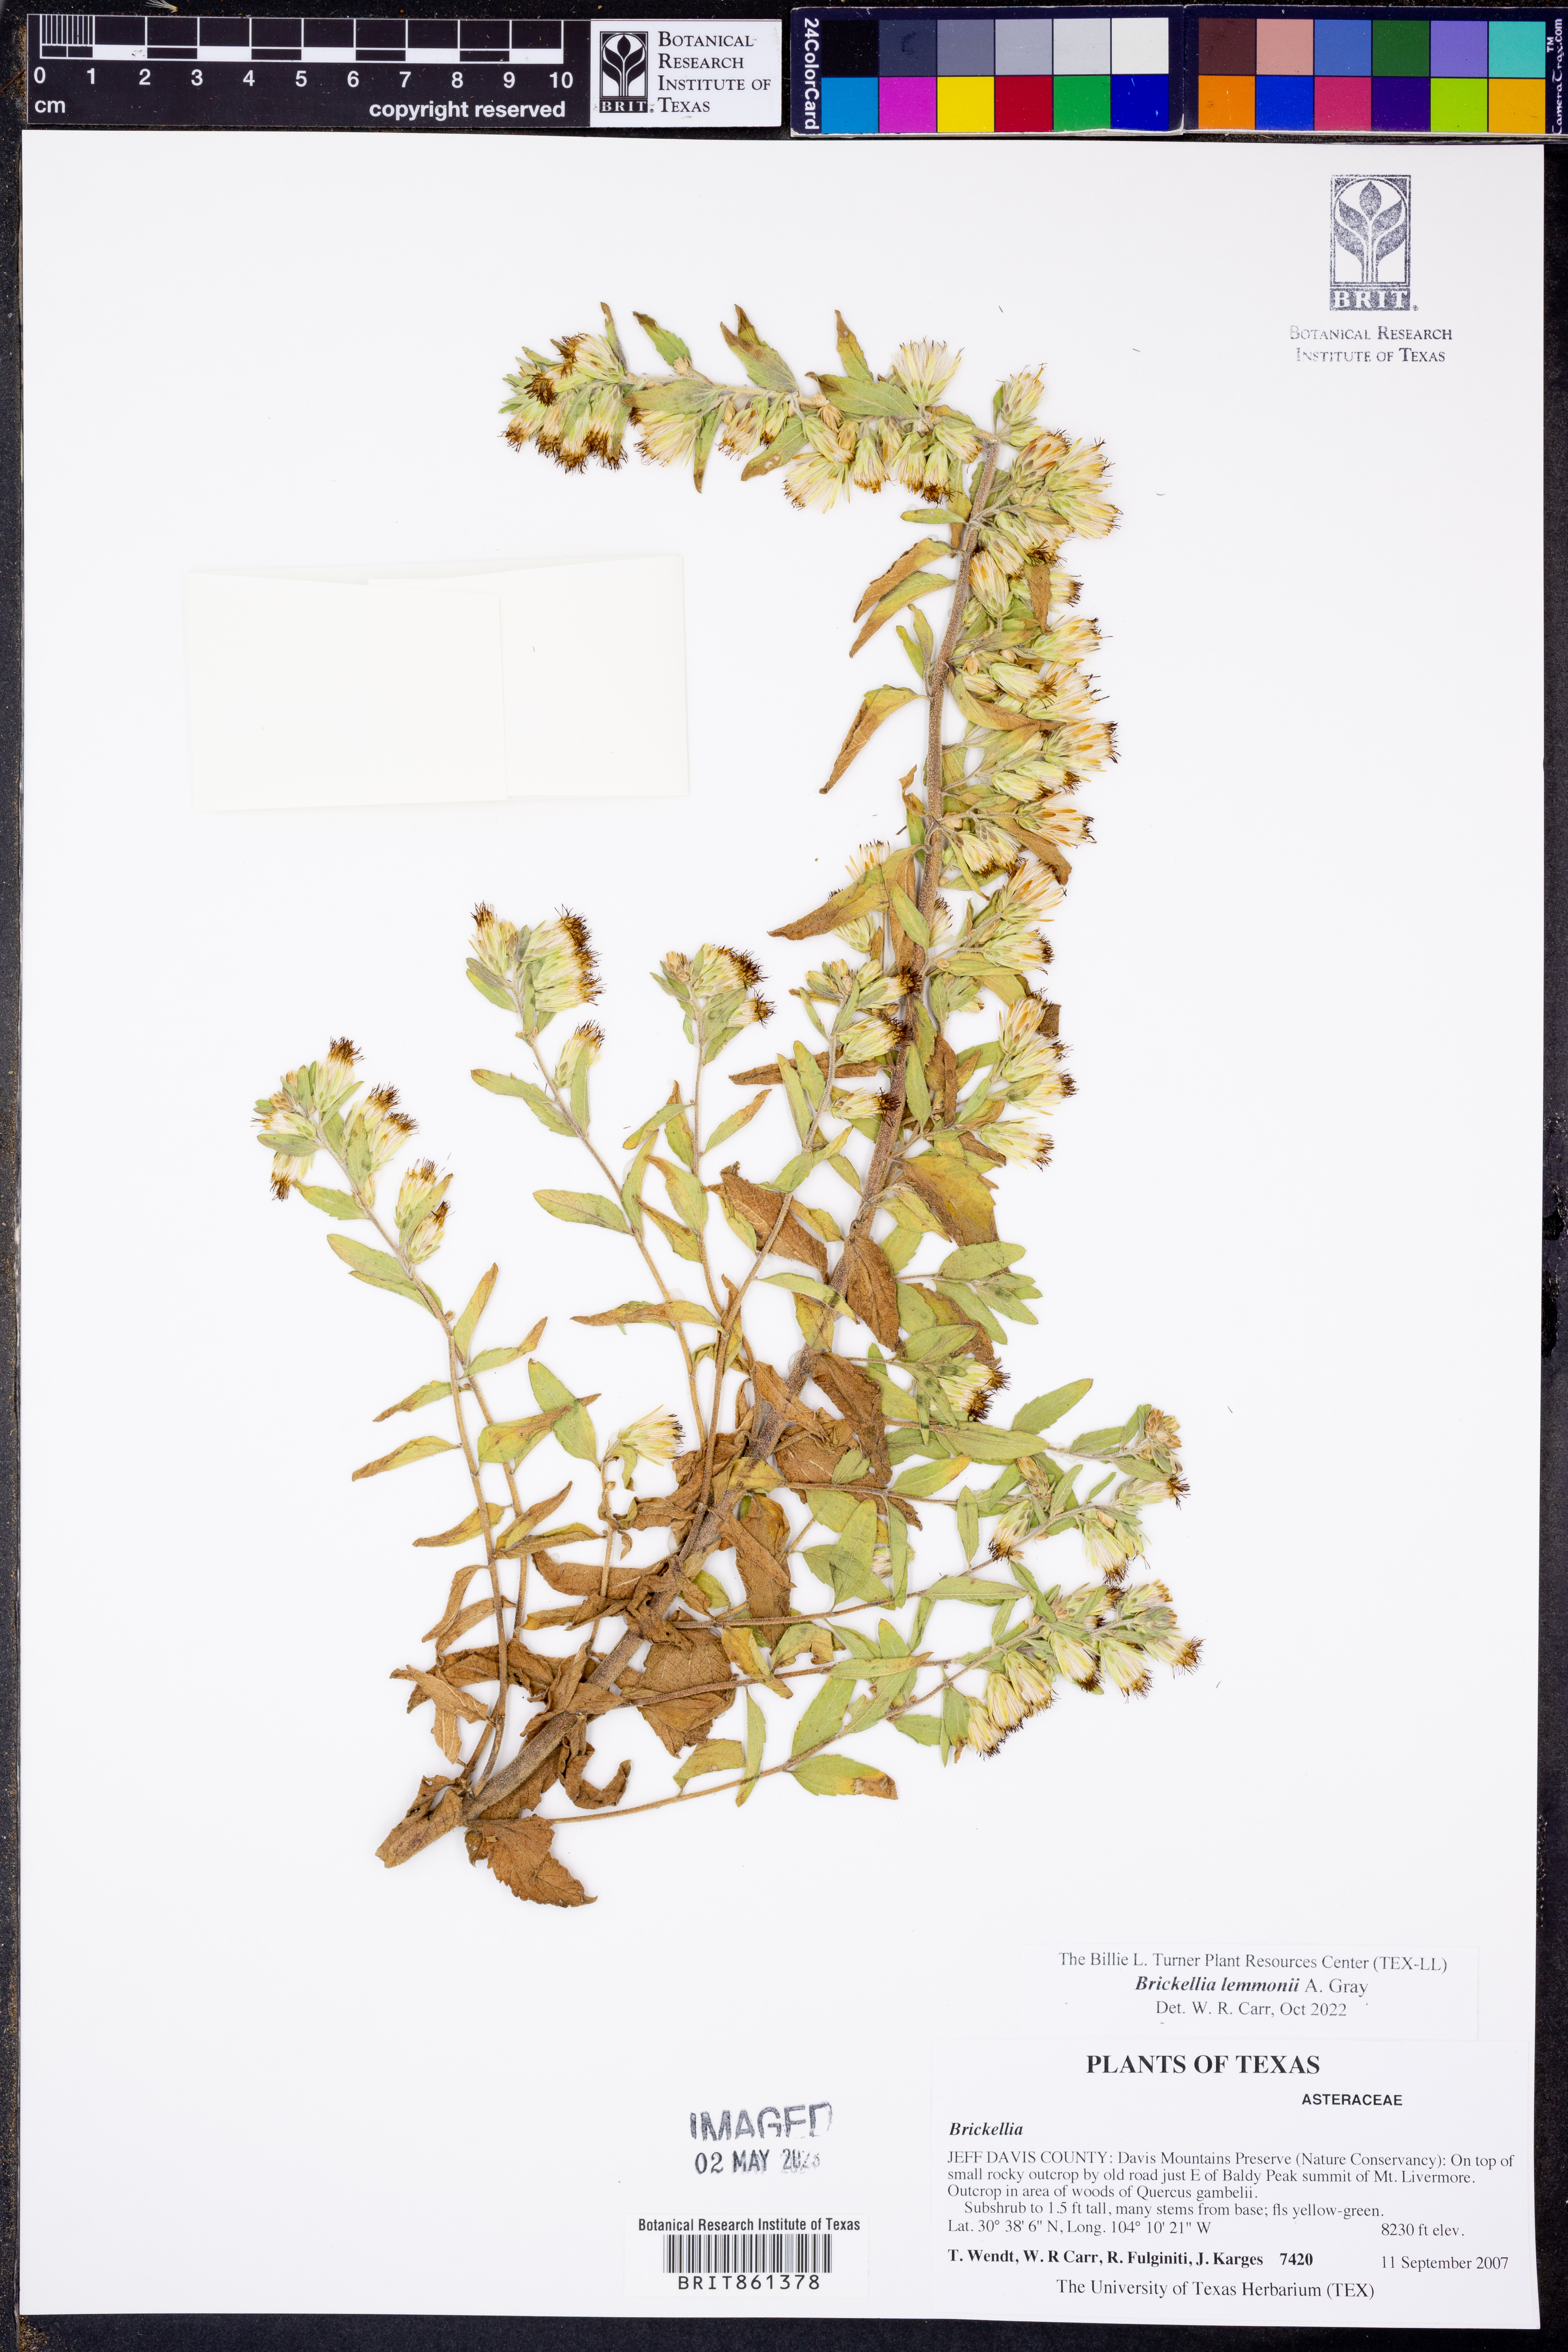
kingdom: Plantae
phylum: Tracheophyta
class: Magnoliopsida
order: Asterales
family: Asteraceae
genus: Brickellia
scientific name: Brickellia lemmonii
